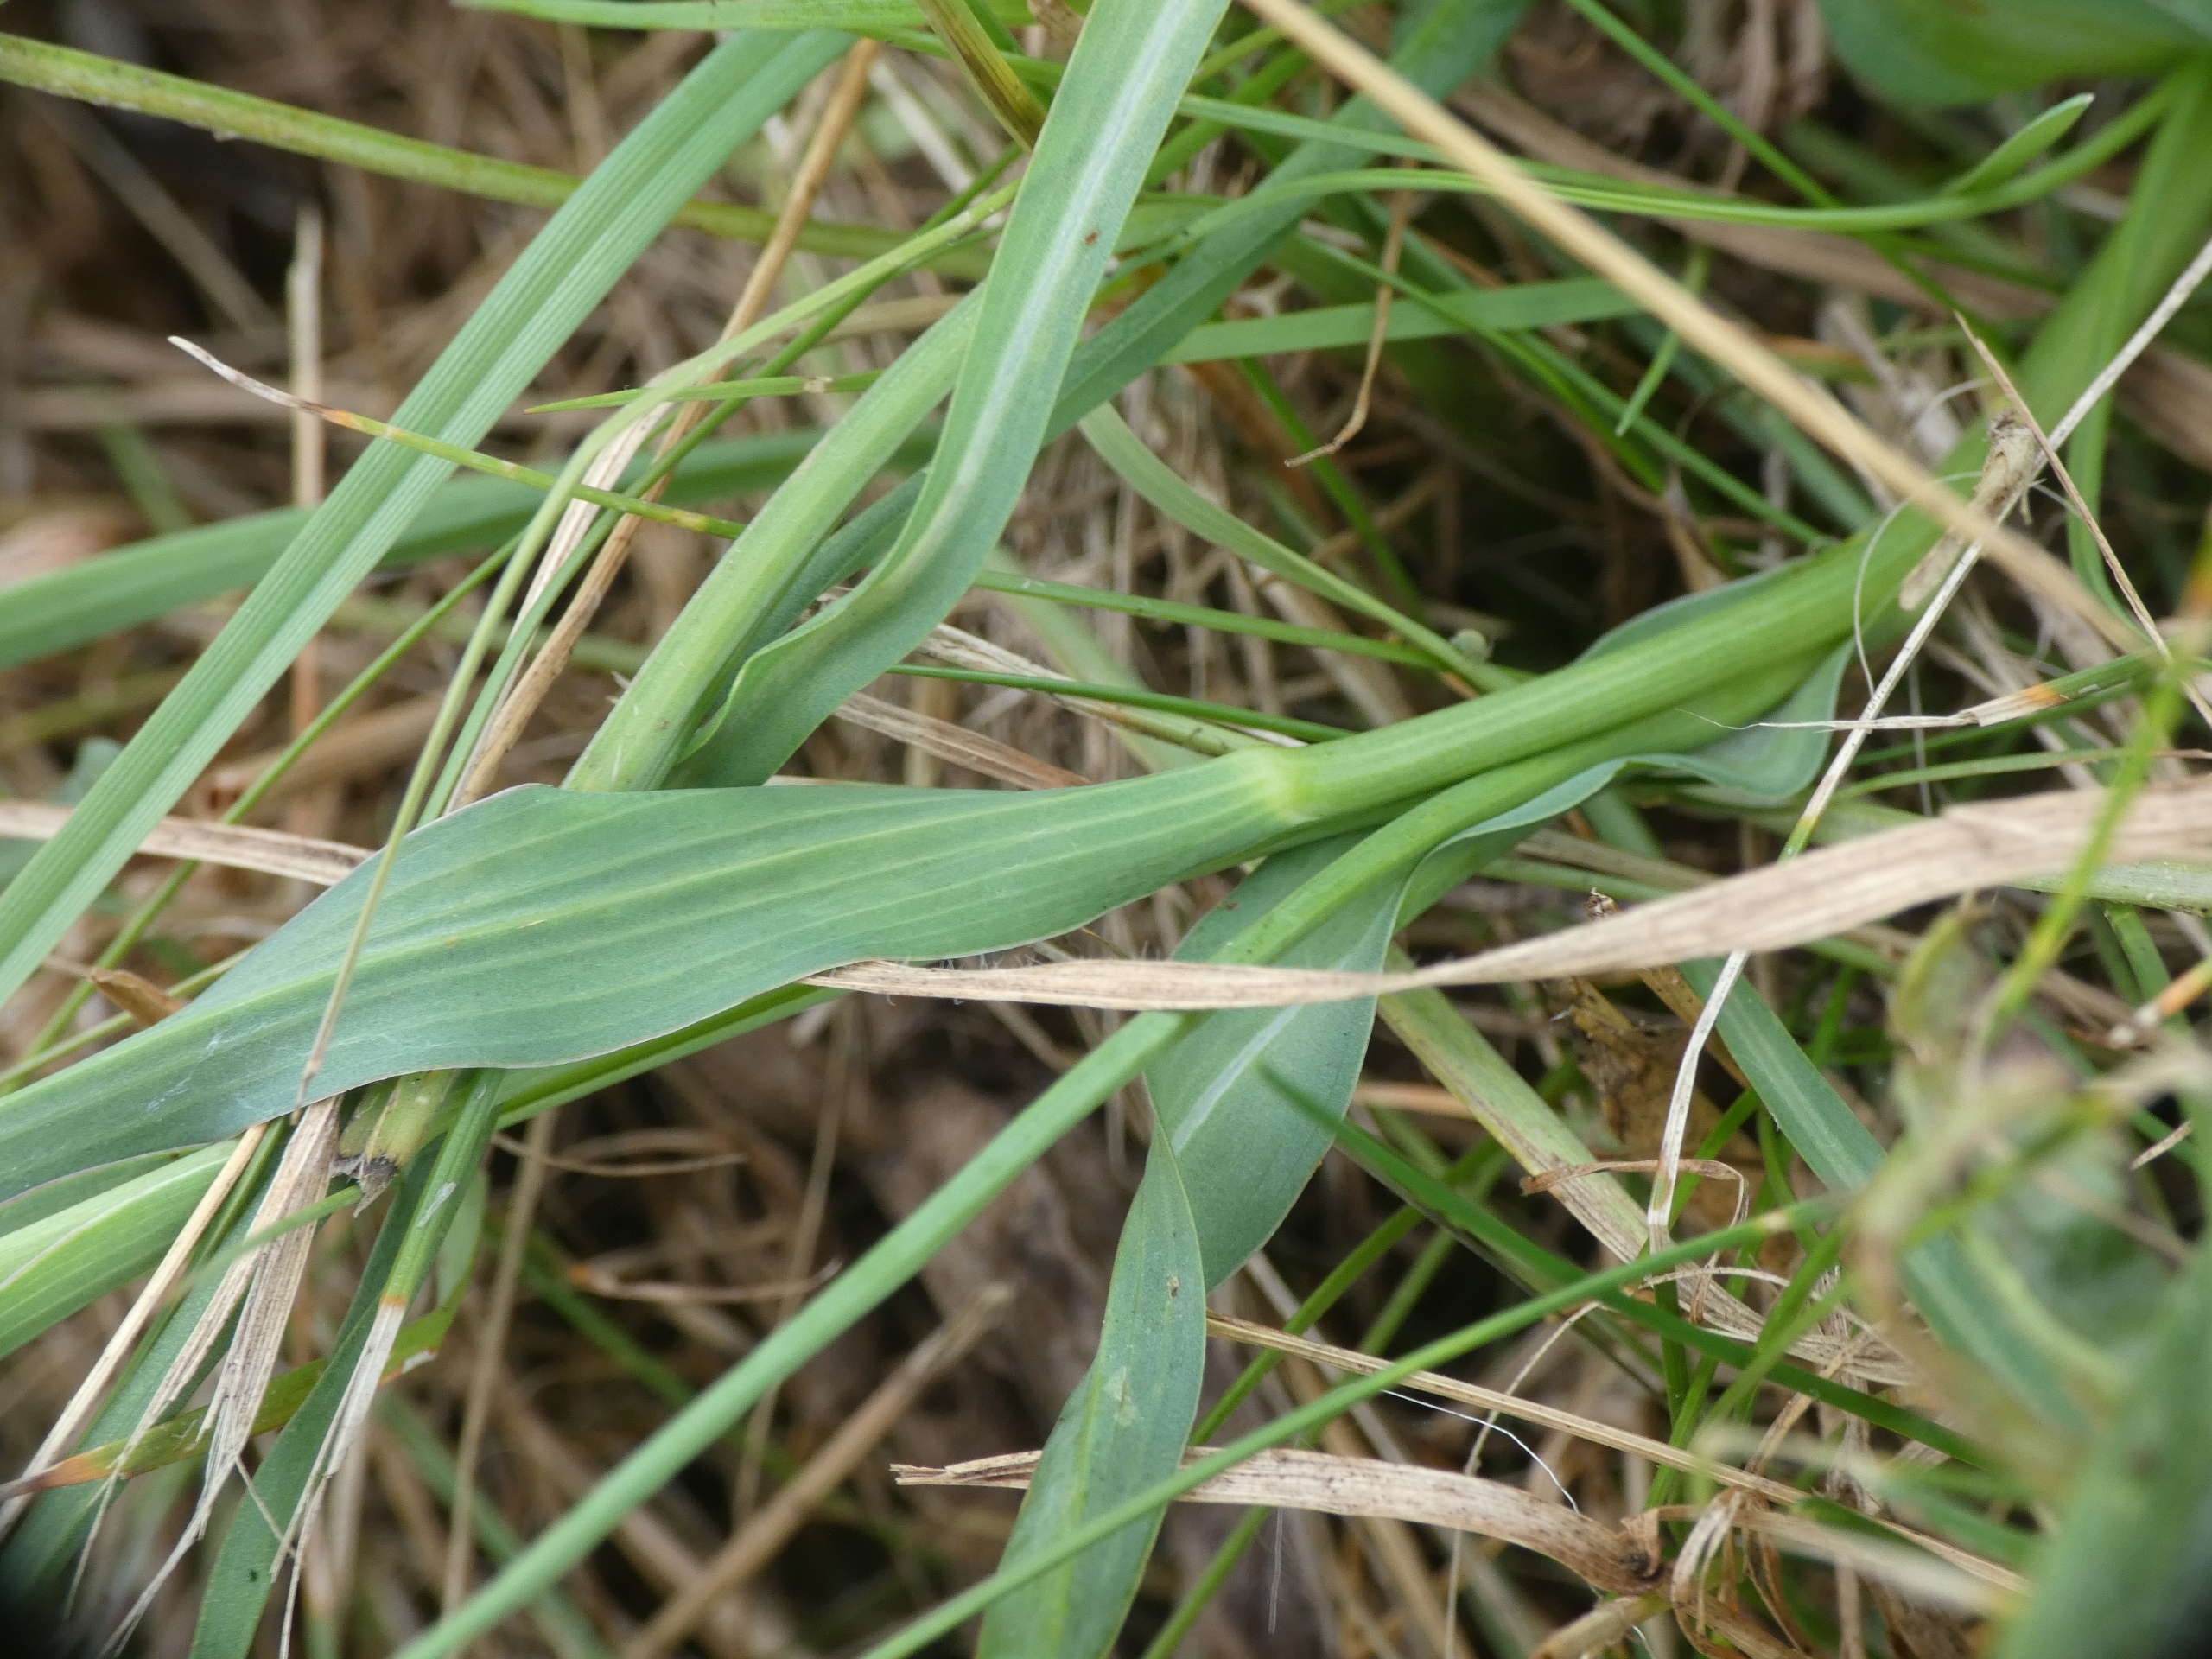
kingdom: Plantae
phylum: Tracheophyta
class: Magnoliopsida
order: Asterales
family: Asteraceae
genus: Tragopogon
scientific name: Tragopogon minor
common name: Småkronet gedeskæg
